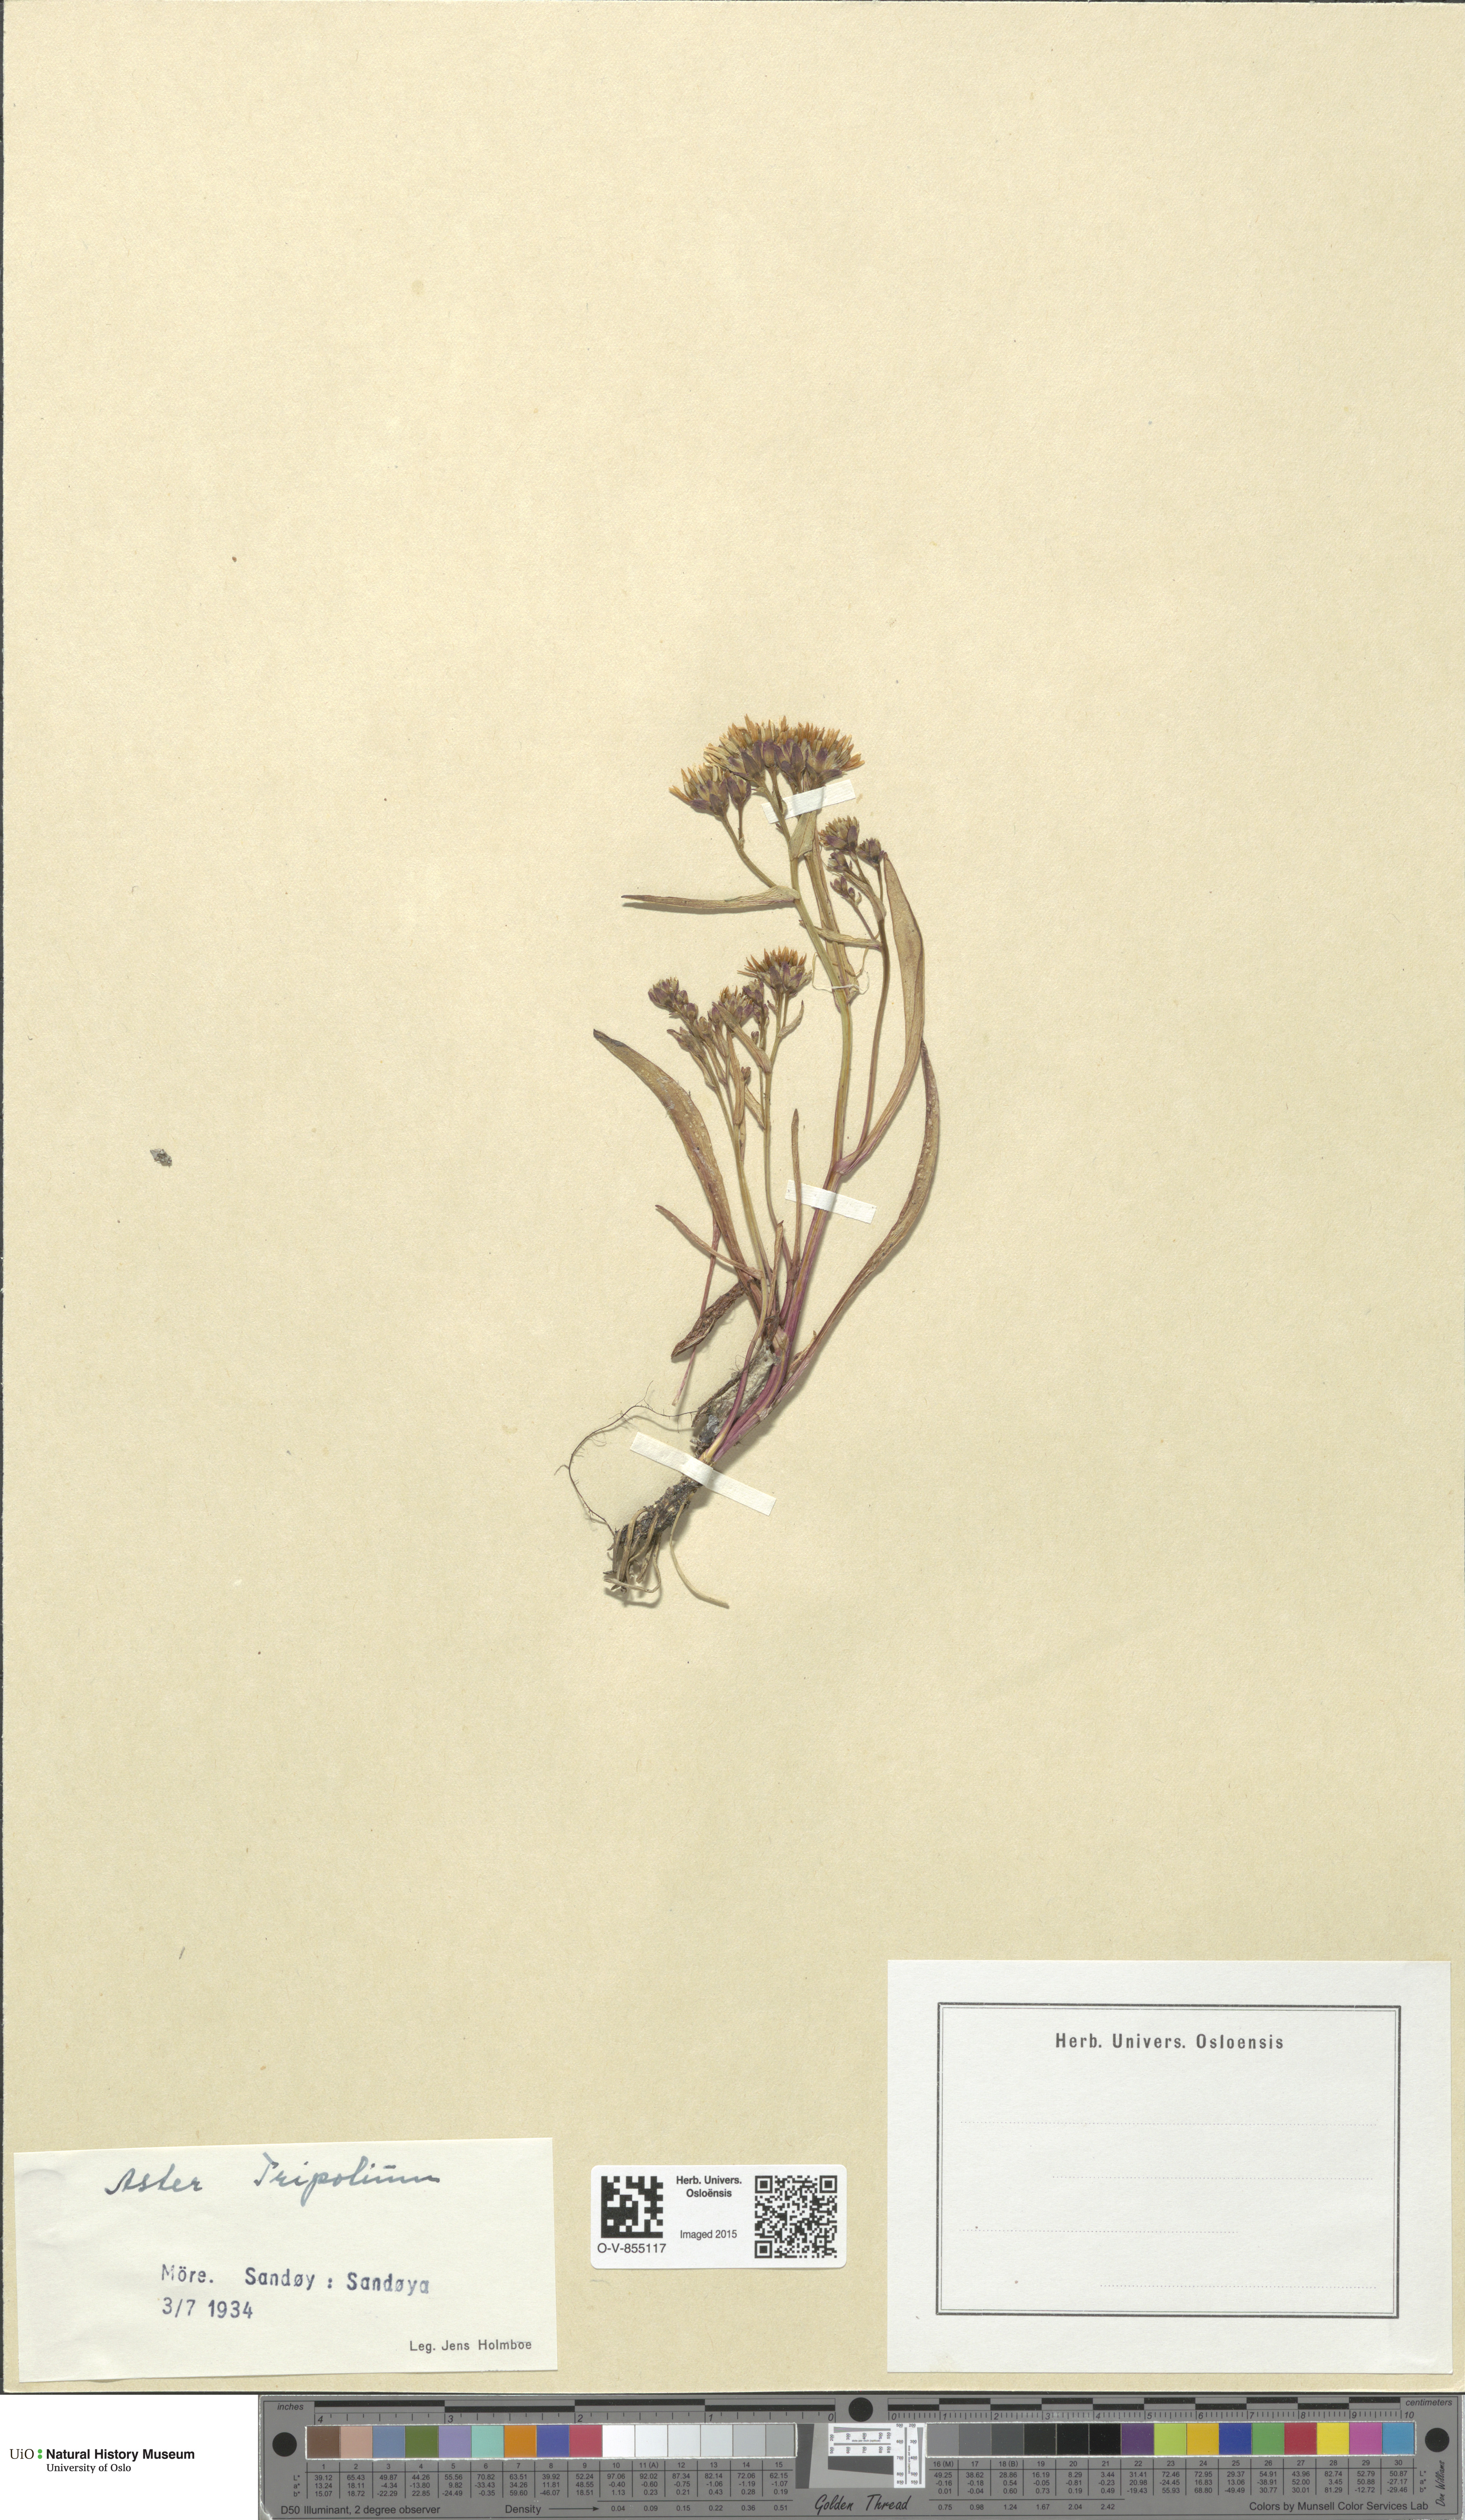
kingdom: Plantae
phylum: Tracheophyta
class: Magnoliopsida
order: Asterales
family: Asteraceae
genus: Tripolium
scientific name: Tripolium pannonicum
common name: Sea aster
